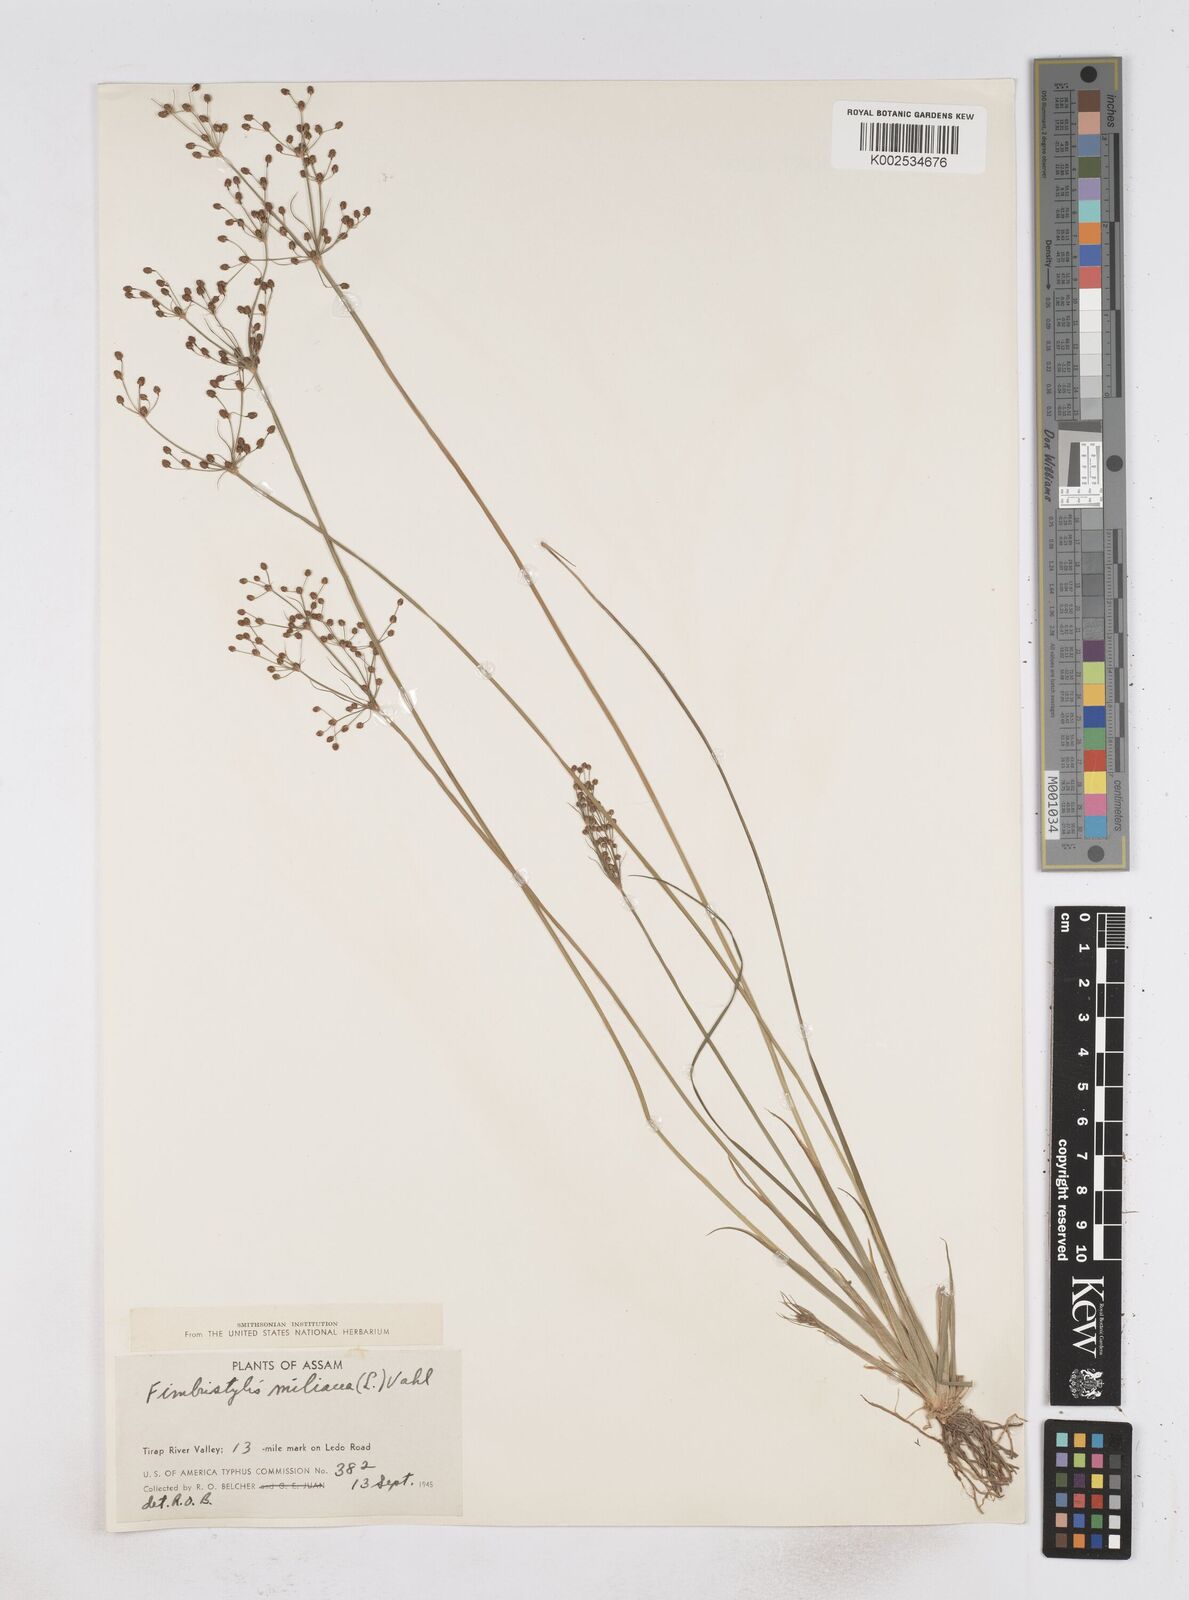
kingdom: Plantae
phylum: Tracheophyta
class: Liliopsida
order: Poales
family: Cyperaceae
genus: Fimbristylis
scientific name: Fimbristylis littoralis
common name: Fimbry
